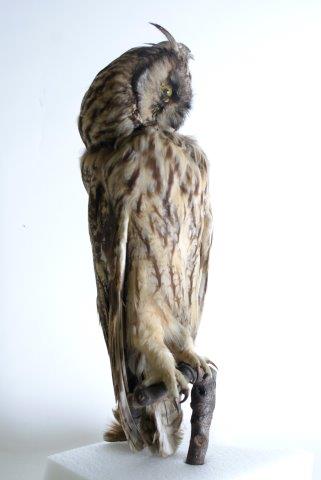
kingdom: Animalia
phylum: Chordata
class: Aves
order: Strigiformes
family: Strigidae
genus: Asio
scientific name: Asio otus
